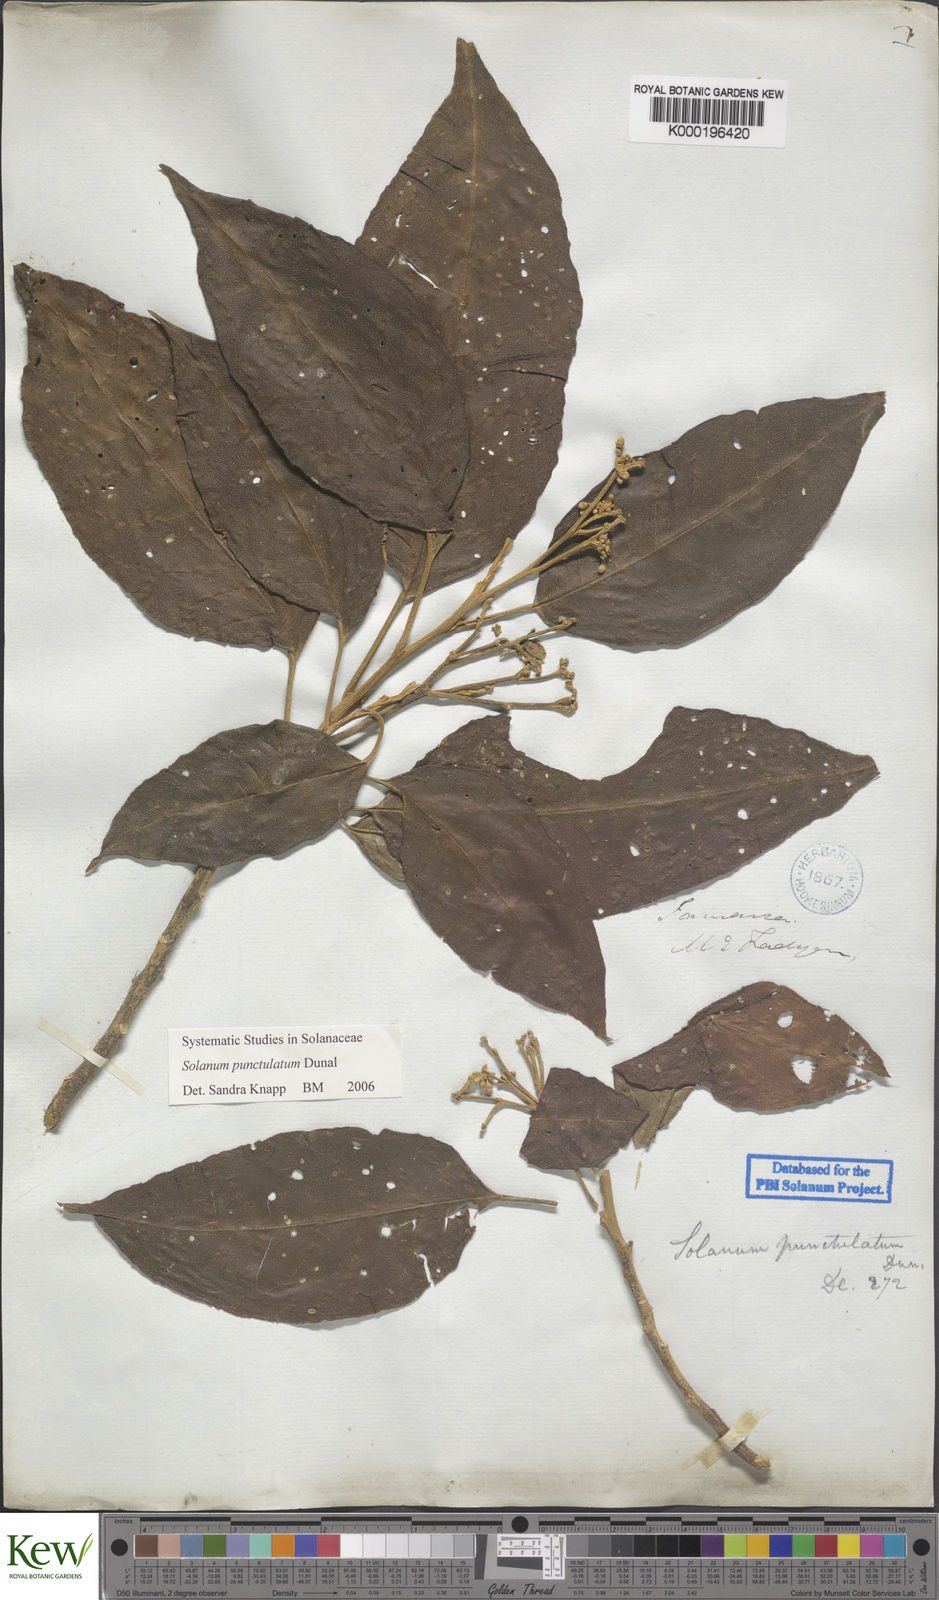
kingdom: Plantae
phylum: Tracheophyta
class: Magnoliopsida
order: Solanales
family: Solanaceae
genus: Solanum
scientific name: Solanum punctulatum
